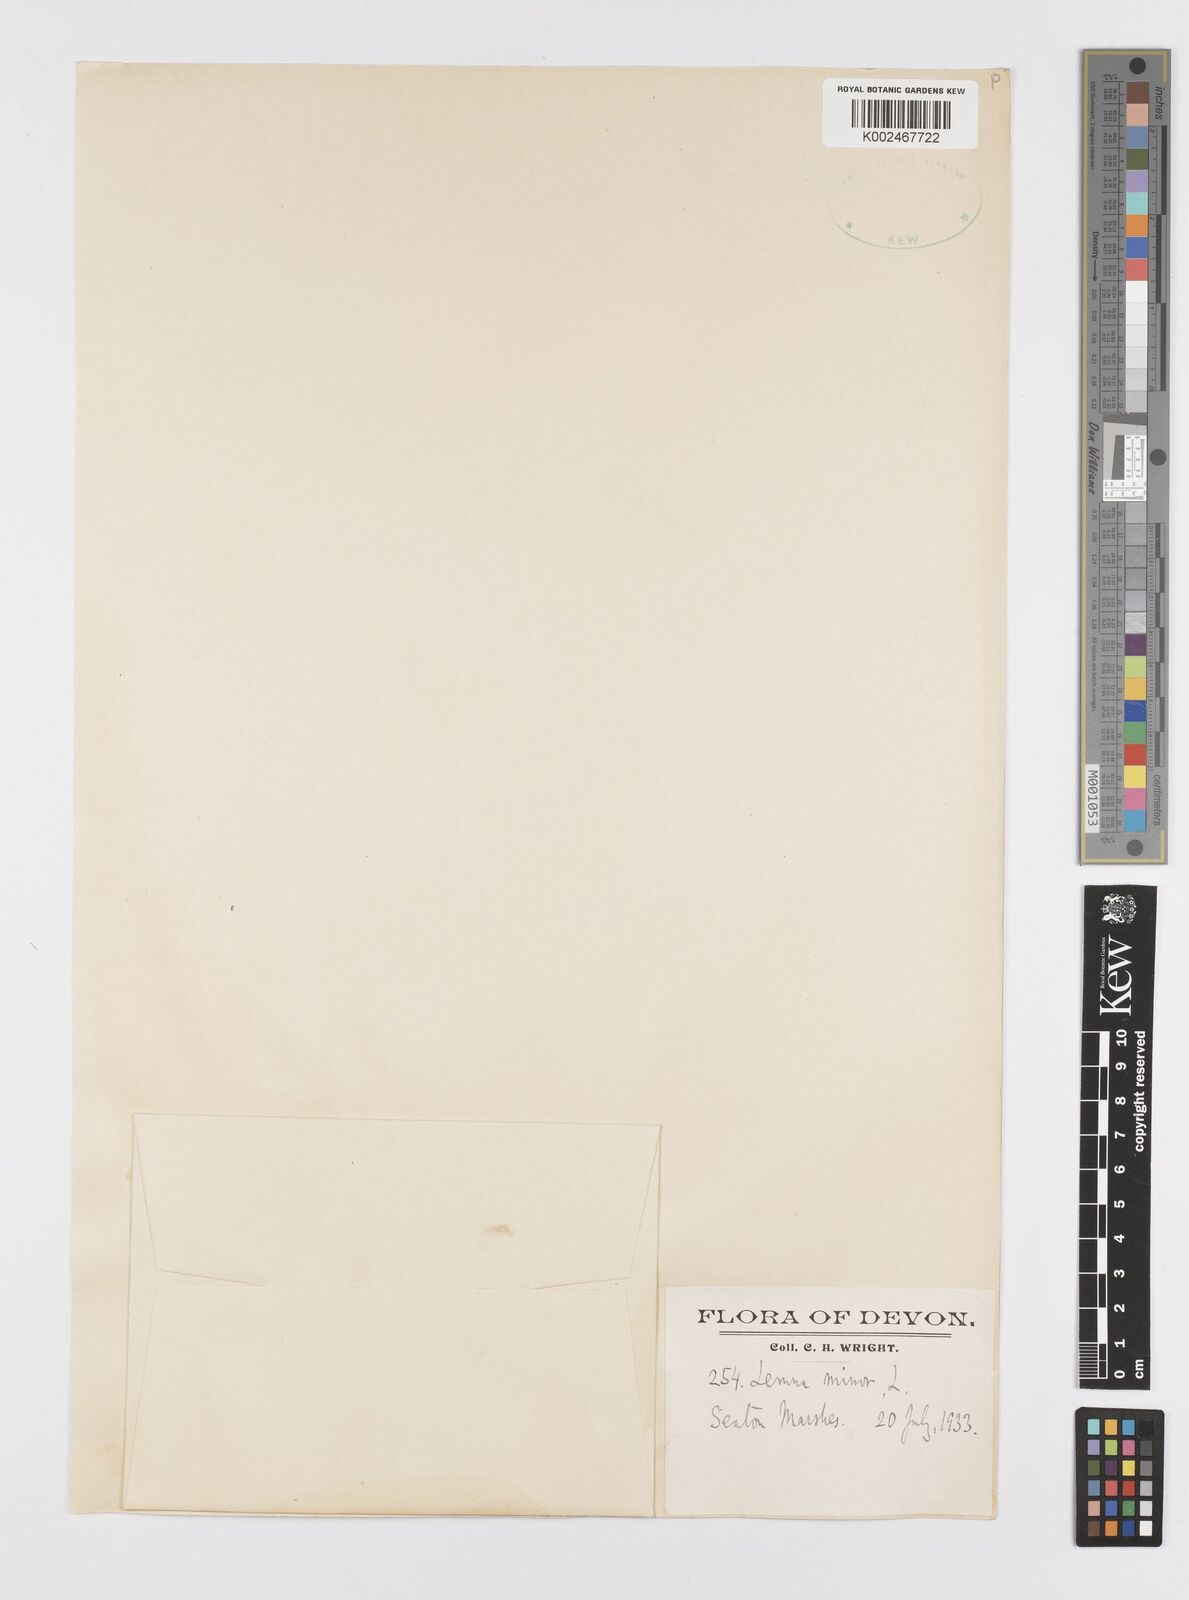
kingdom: Plantae
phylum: Tracheophyta
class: Liliopsida
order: Alismatales
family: Araceae
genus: Lemna
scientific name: Lemna minor
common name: Common duckweed
